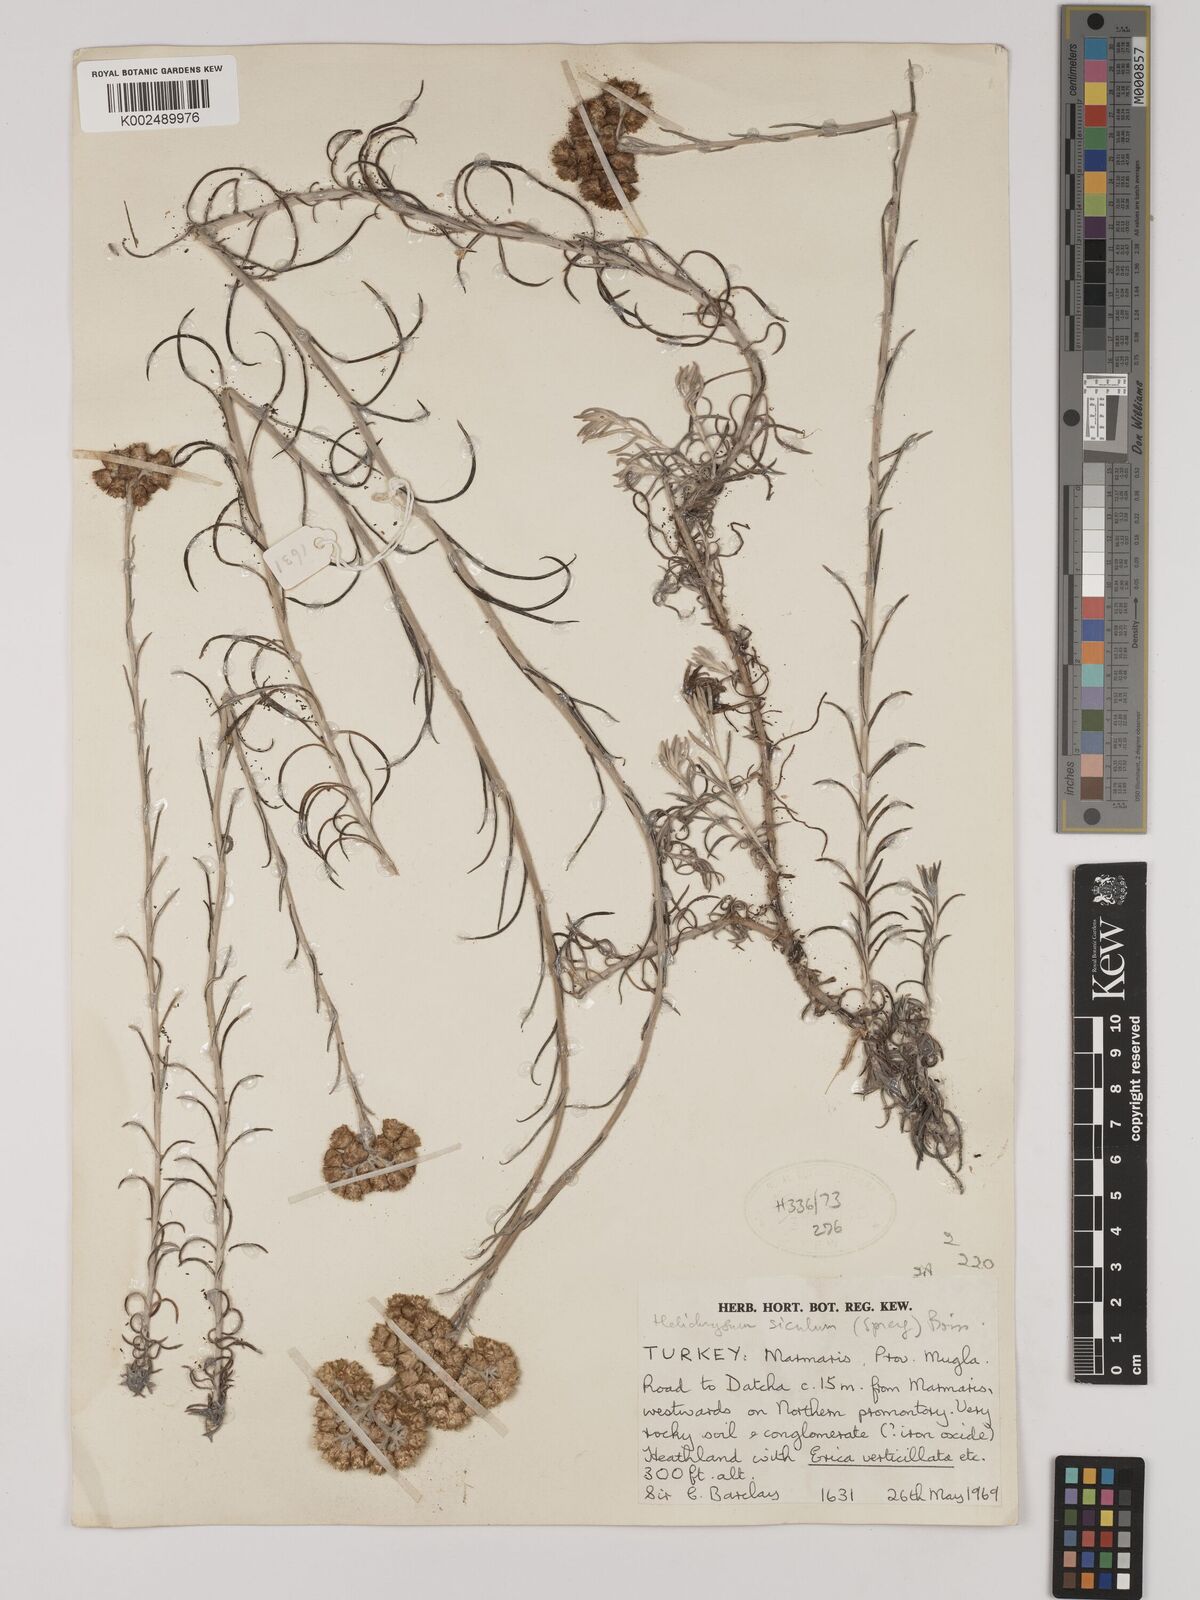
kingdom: Plantae
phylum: Tracheophyta
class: Magnoliopsida
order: Asterales
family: Asteraceae
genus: Helichrysum
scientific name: Helichrysum stoechas
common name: Goldilocks
